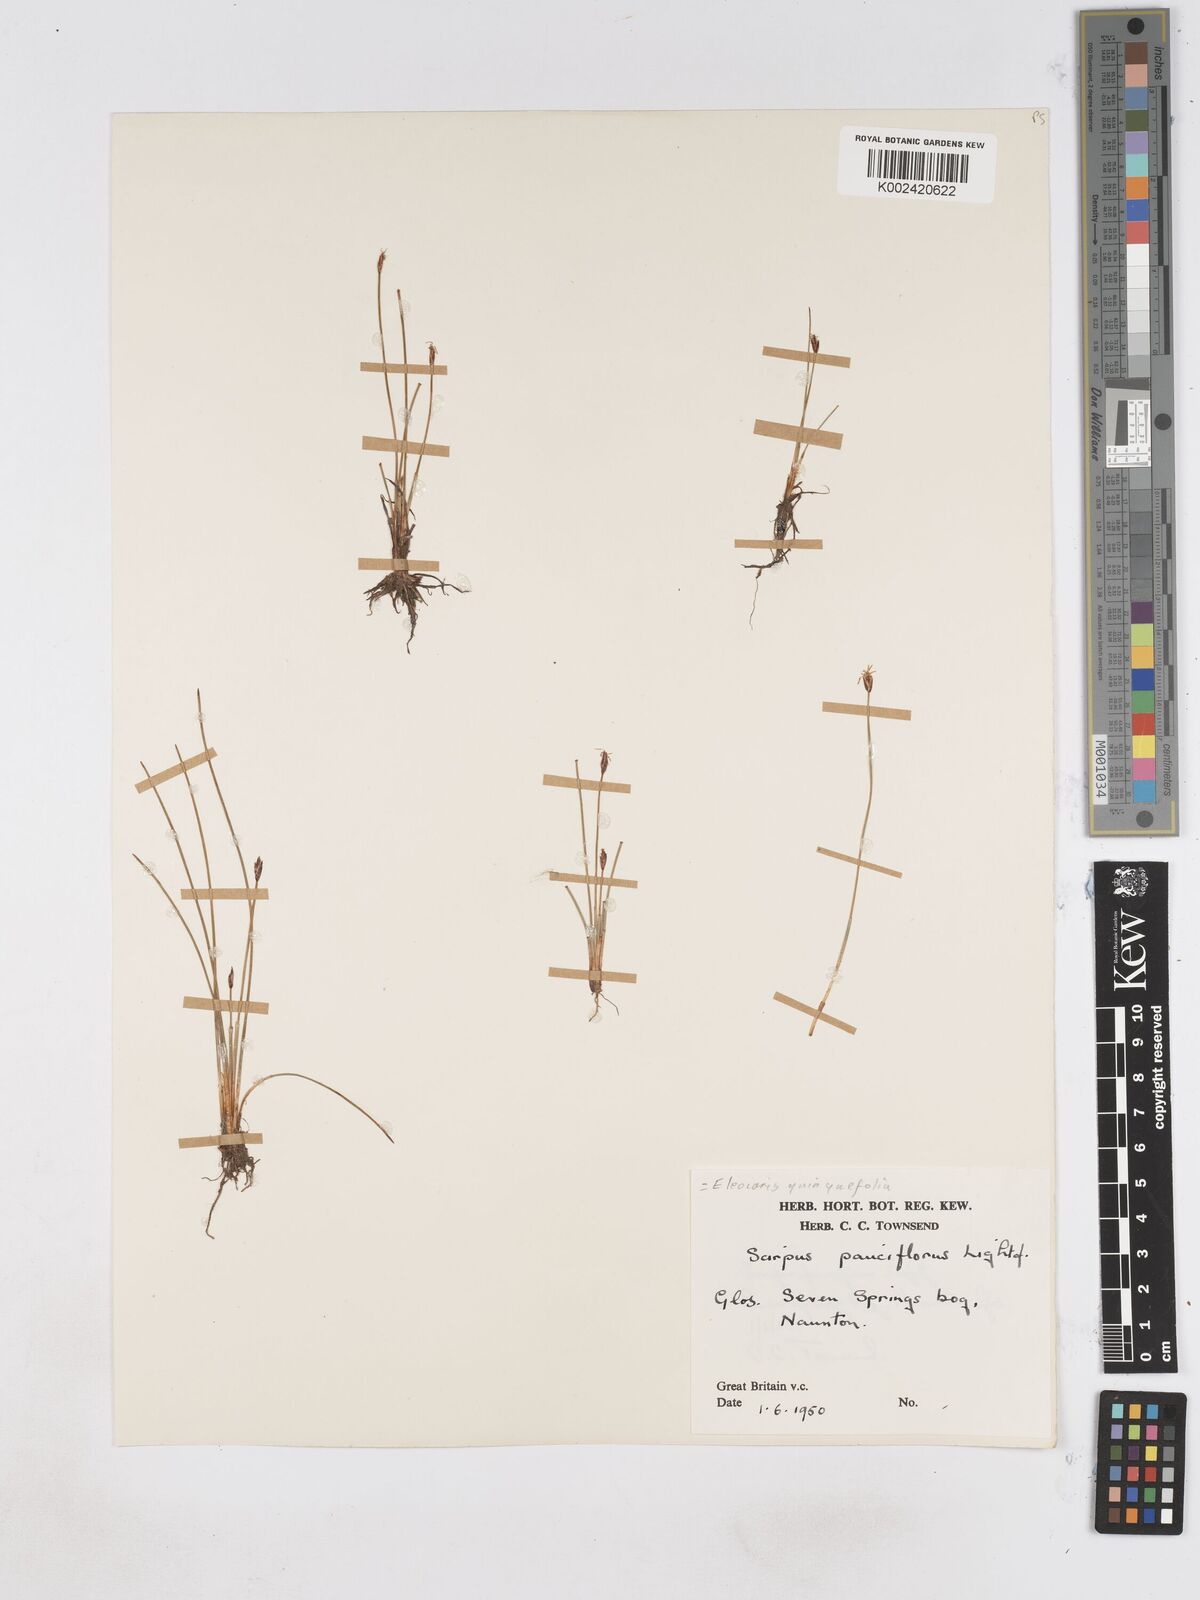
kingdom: Plantae
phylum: Tracheophyta
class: Liliopsida
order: Poales
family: Cyperaceae
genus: Eleocharis
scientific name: Eleocharis quinqueflora
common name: Few-flowered spike-rush
